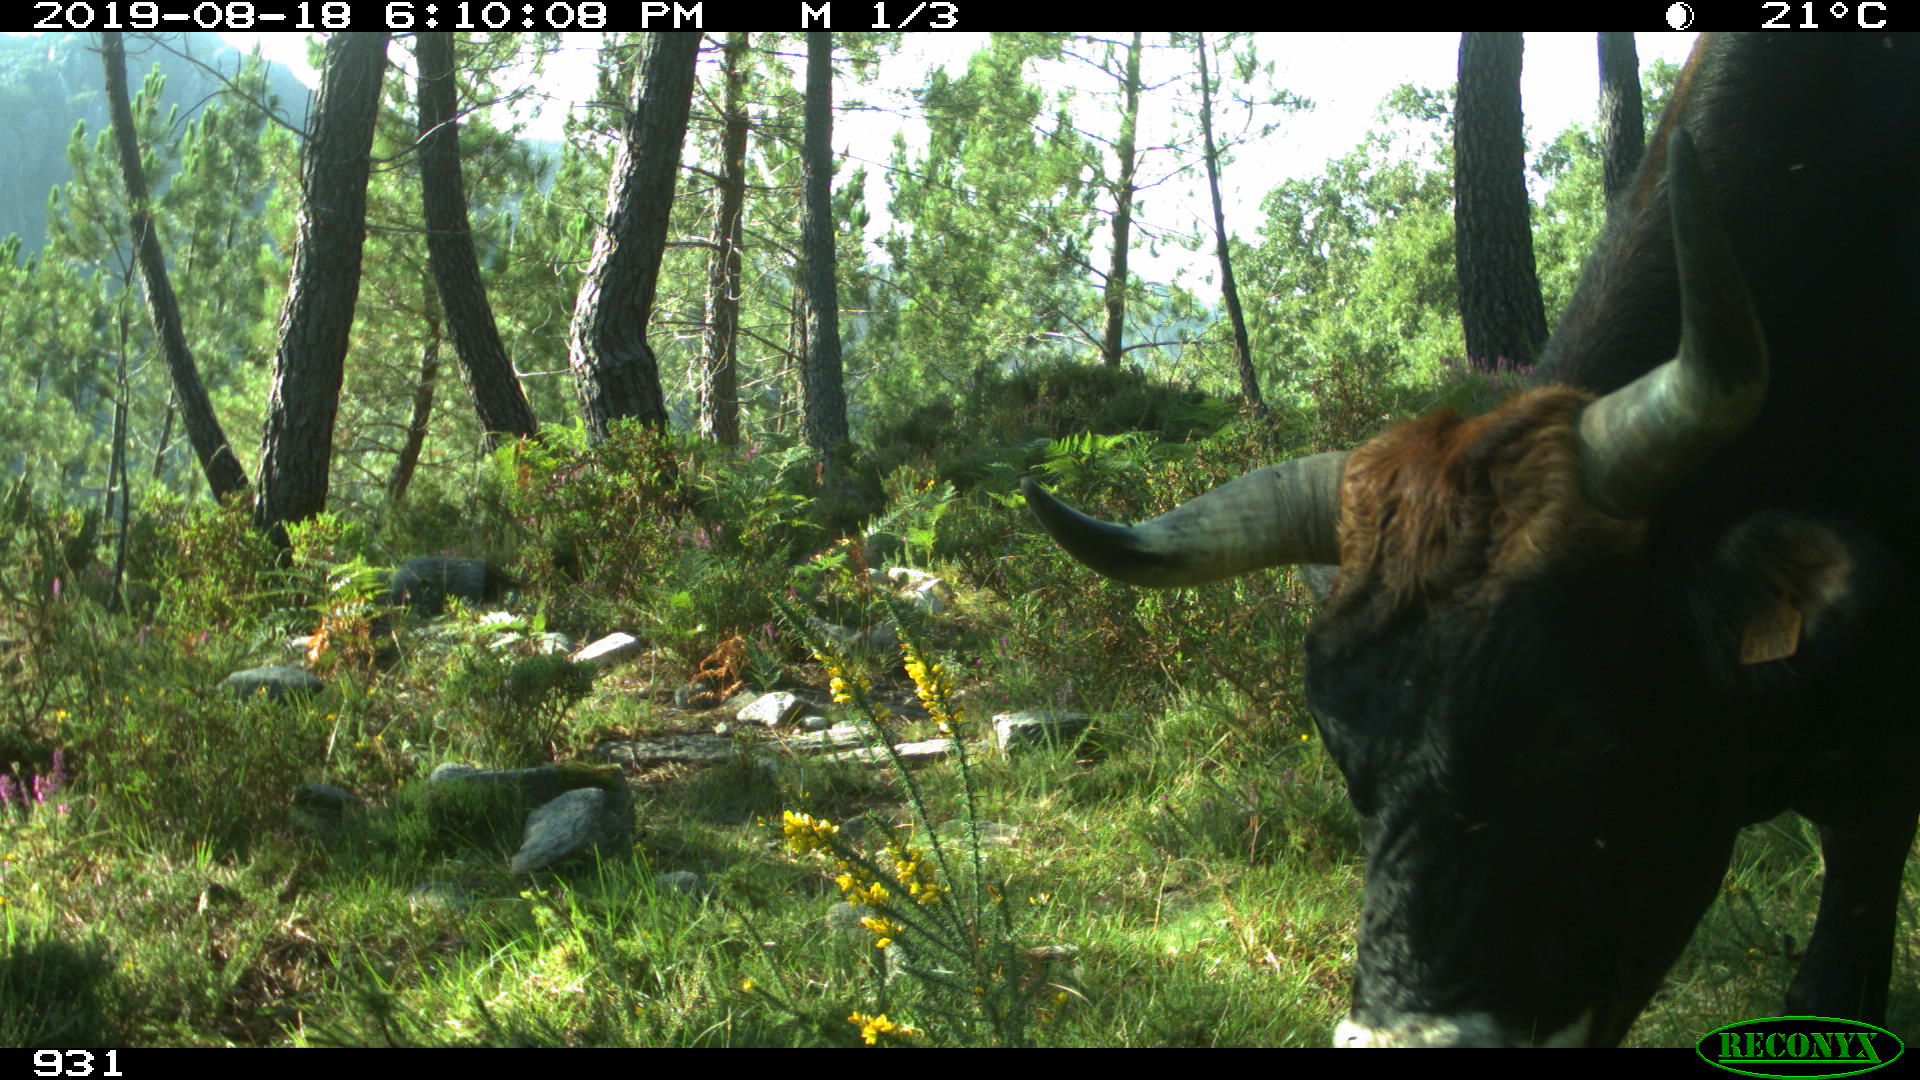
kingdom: Animalia
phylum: Chordata
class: Mammalia
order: Artiodactyla
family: Bovidae
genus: Bos
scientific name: Bos taurus
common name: Domesticated cattle
